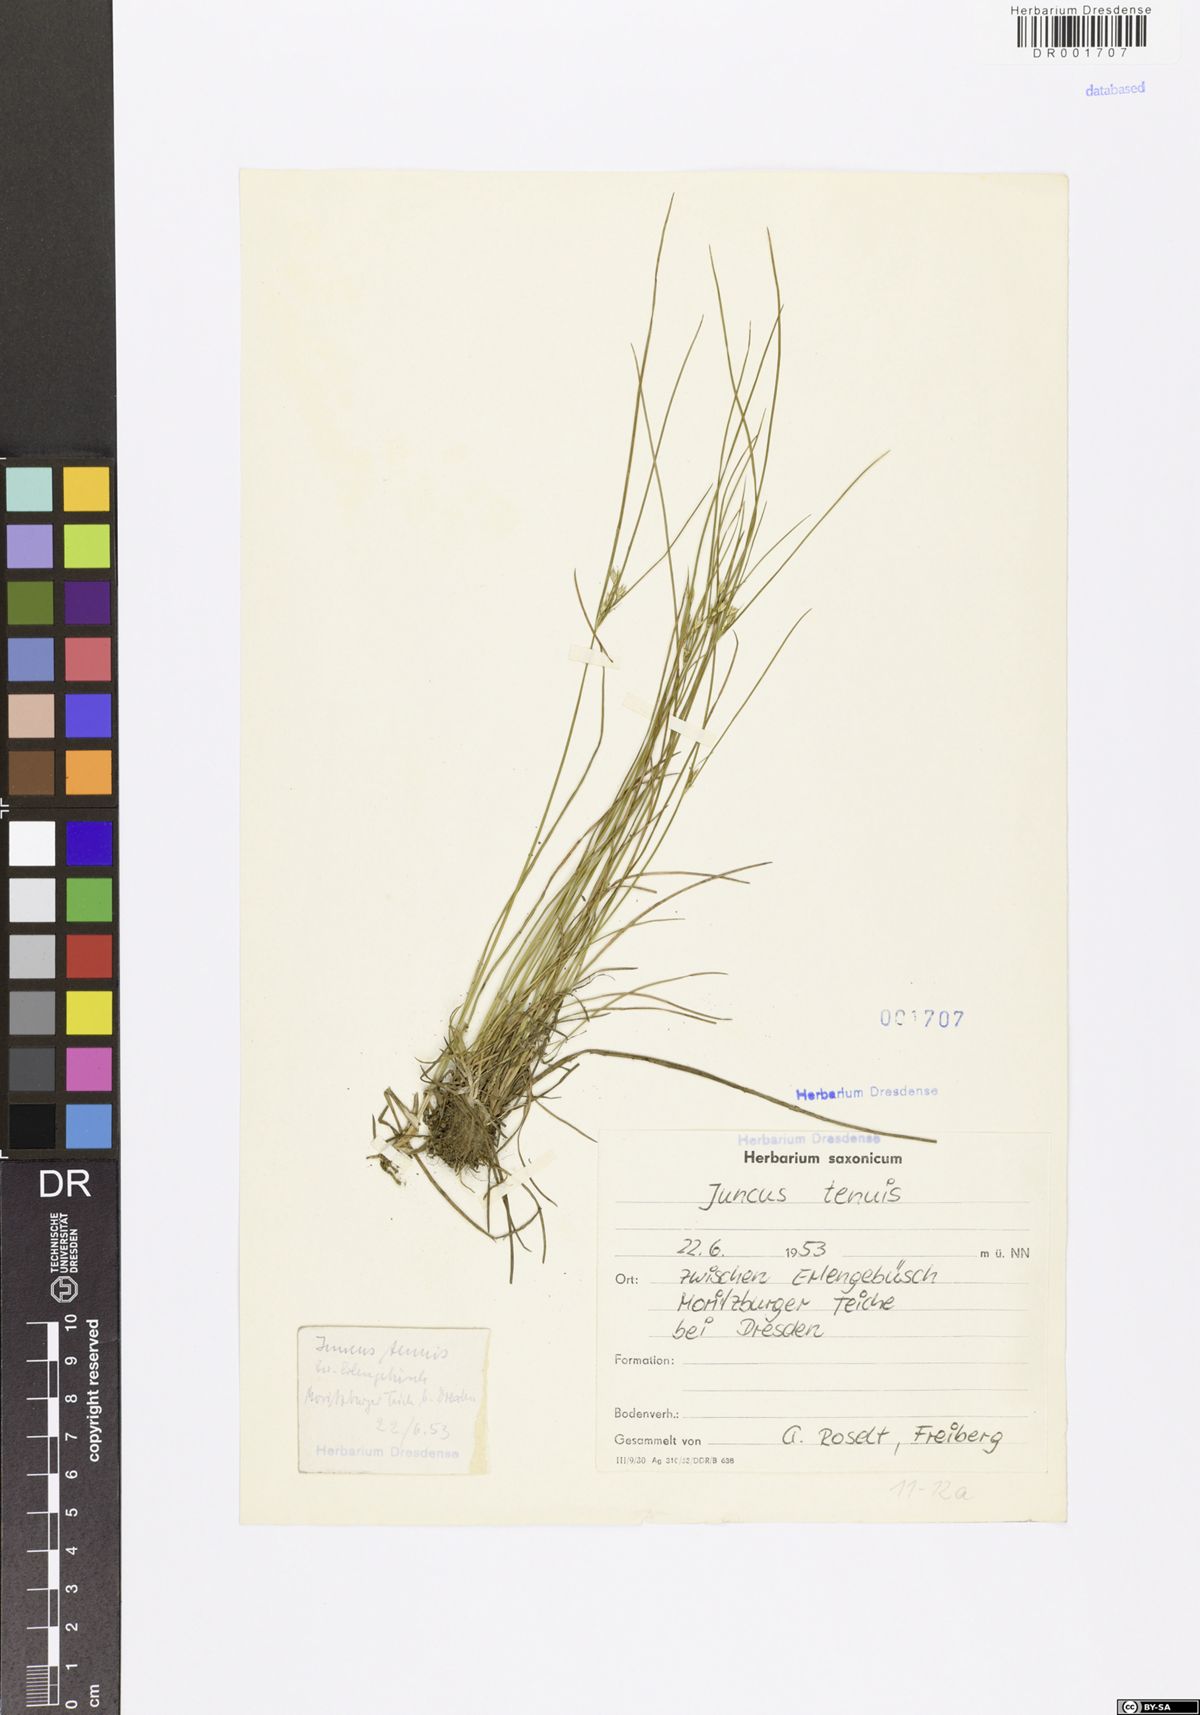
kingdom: Plantae
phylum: Tracheophyta
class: Liliopsida
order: Poales
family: Juncaceae
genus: Juncus
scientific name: Juncus tenuis
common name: Slender rush
